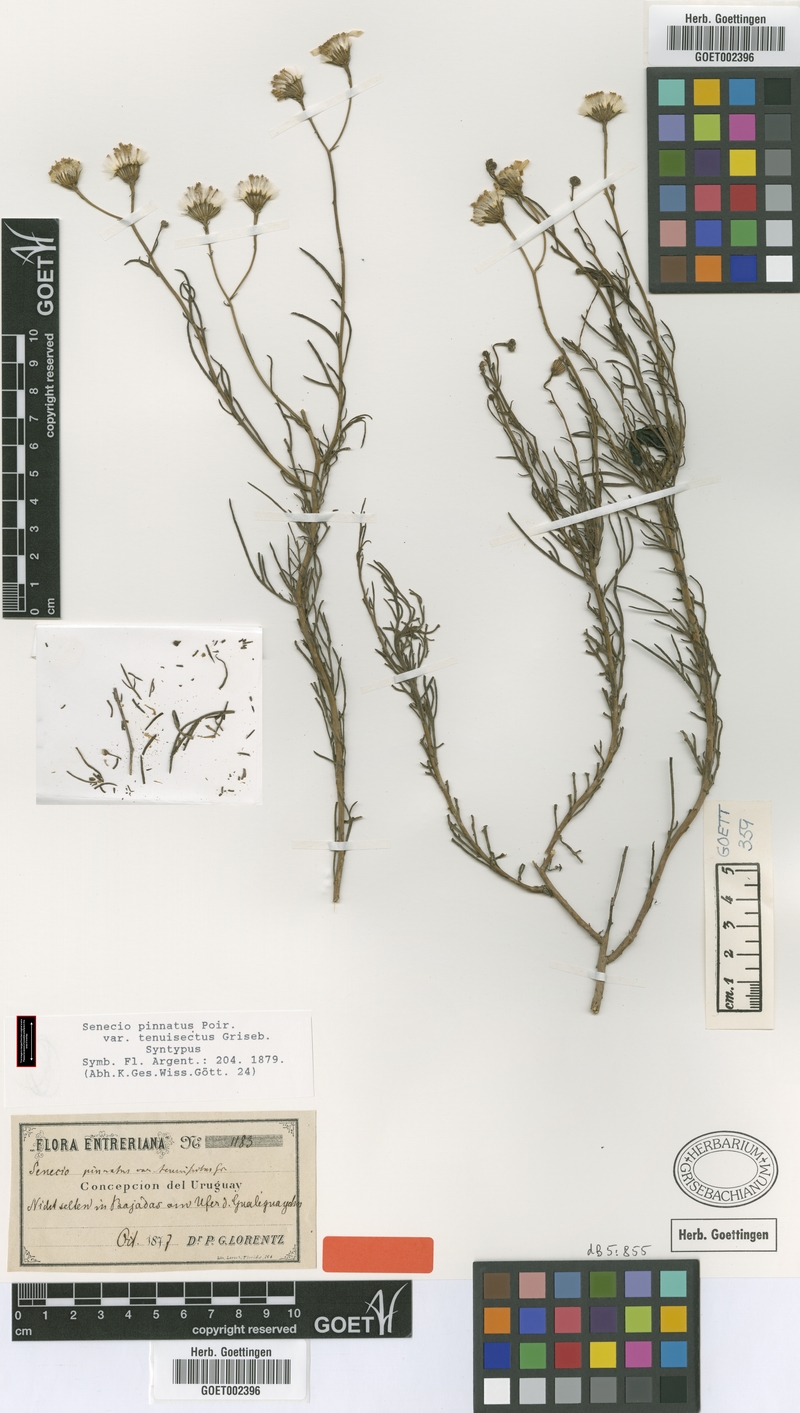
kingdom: Plantae
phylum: Tracheophyta
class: Magnoliopsida
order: Asterales
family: Asteraceae
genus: Senecio
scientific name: Senecio pinnatus
